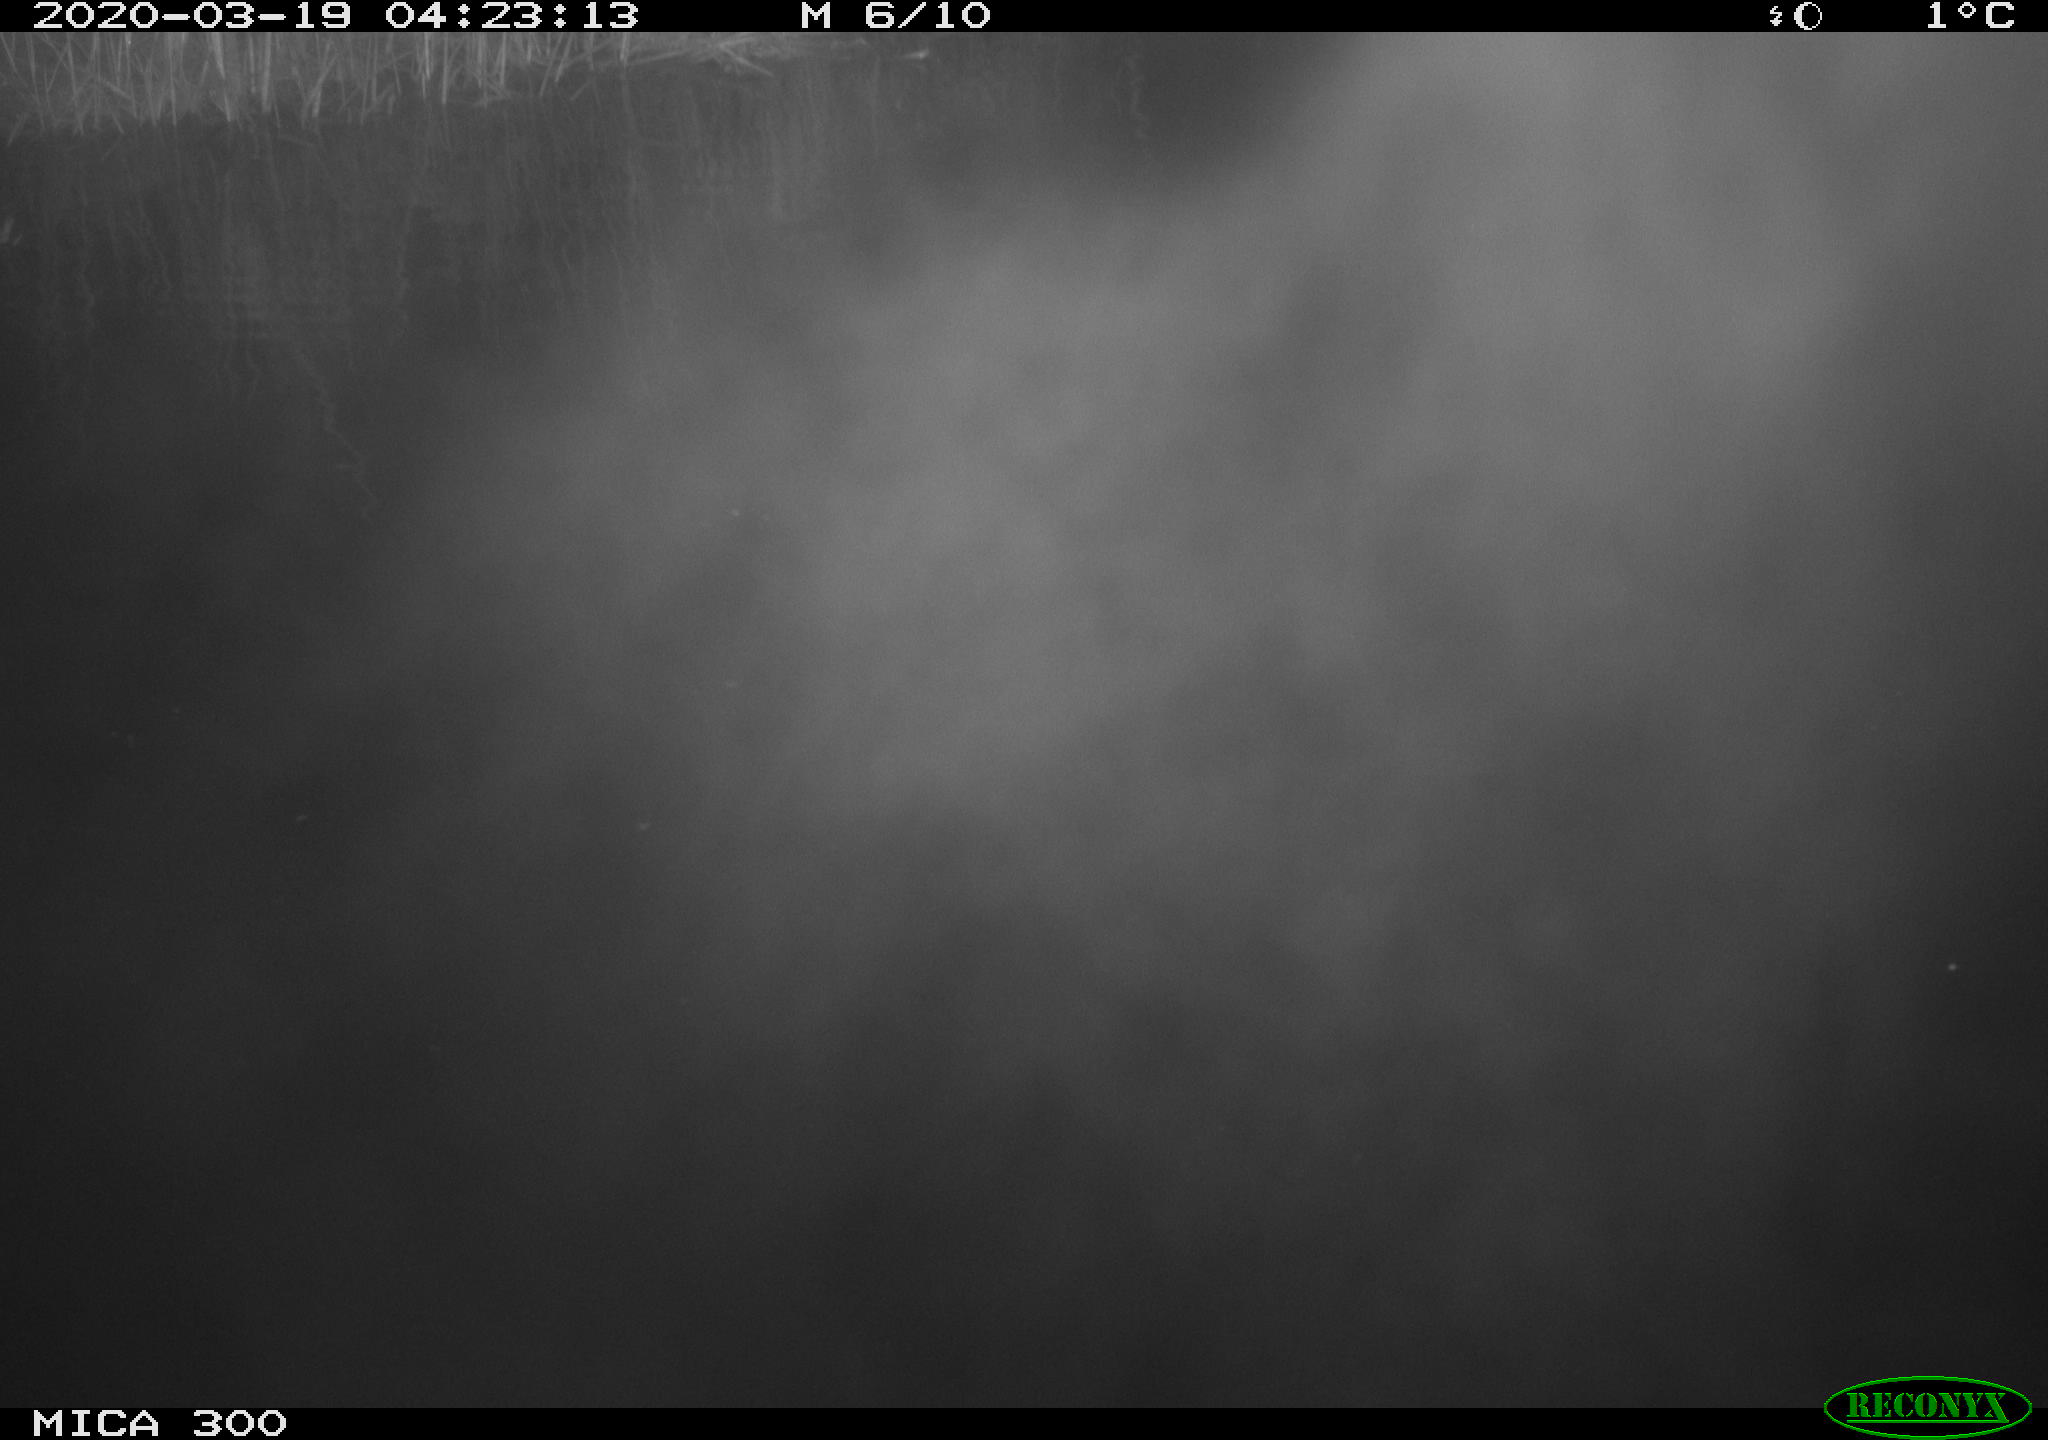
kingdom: Animalia
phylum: Chordata
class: Mammalia
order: Rodentia
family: Castoridae
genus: Castor
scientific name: Castor fiber
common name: Eurasian beaver
